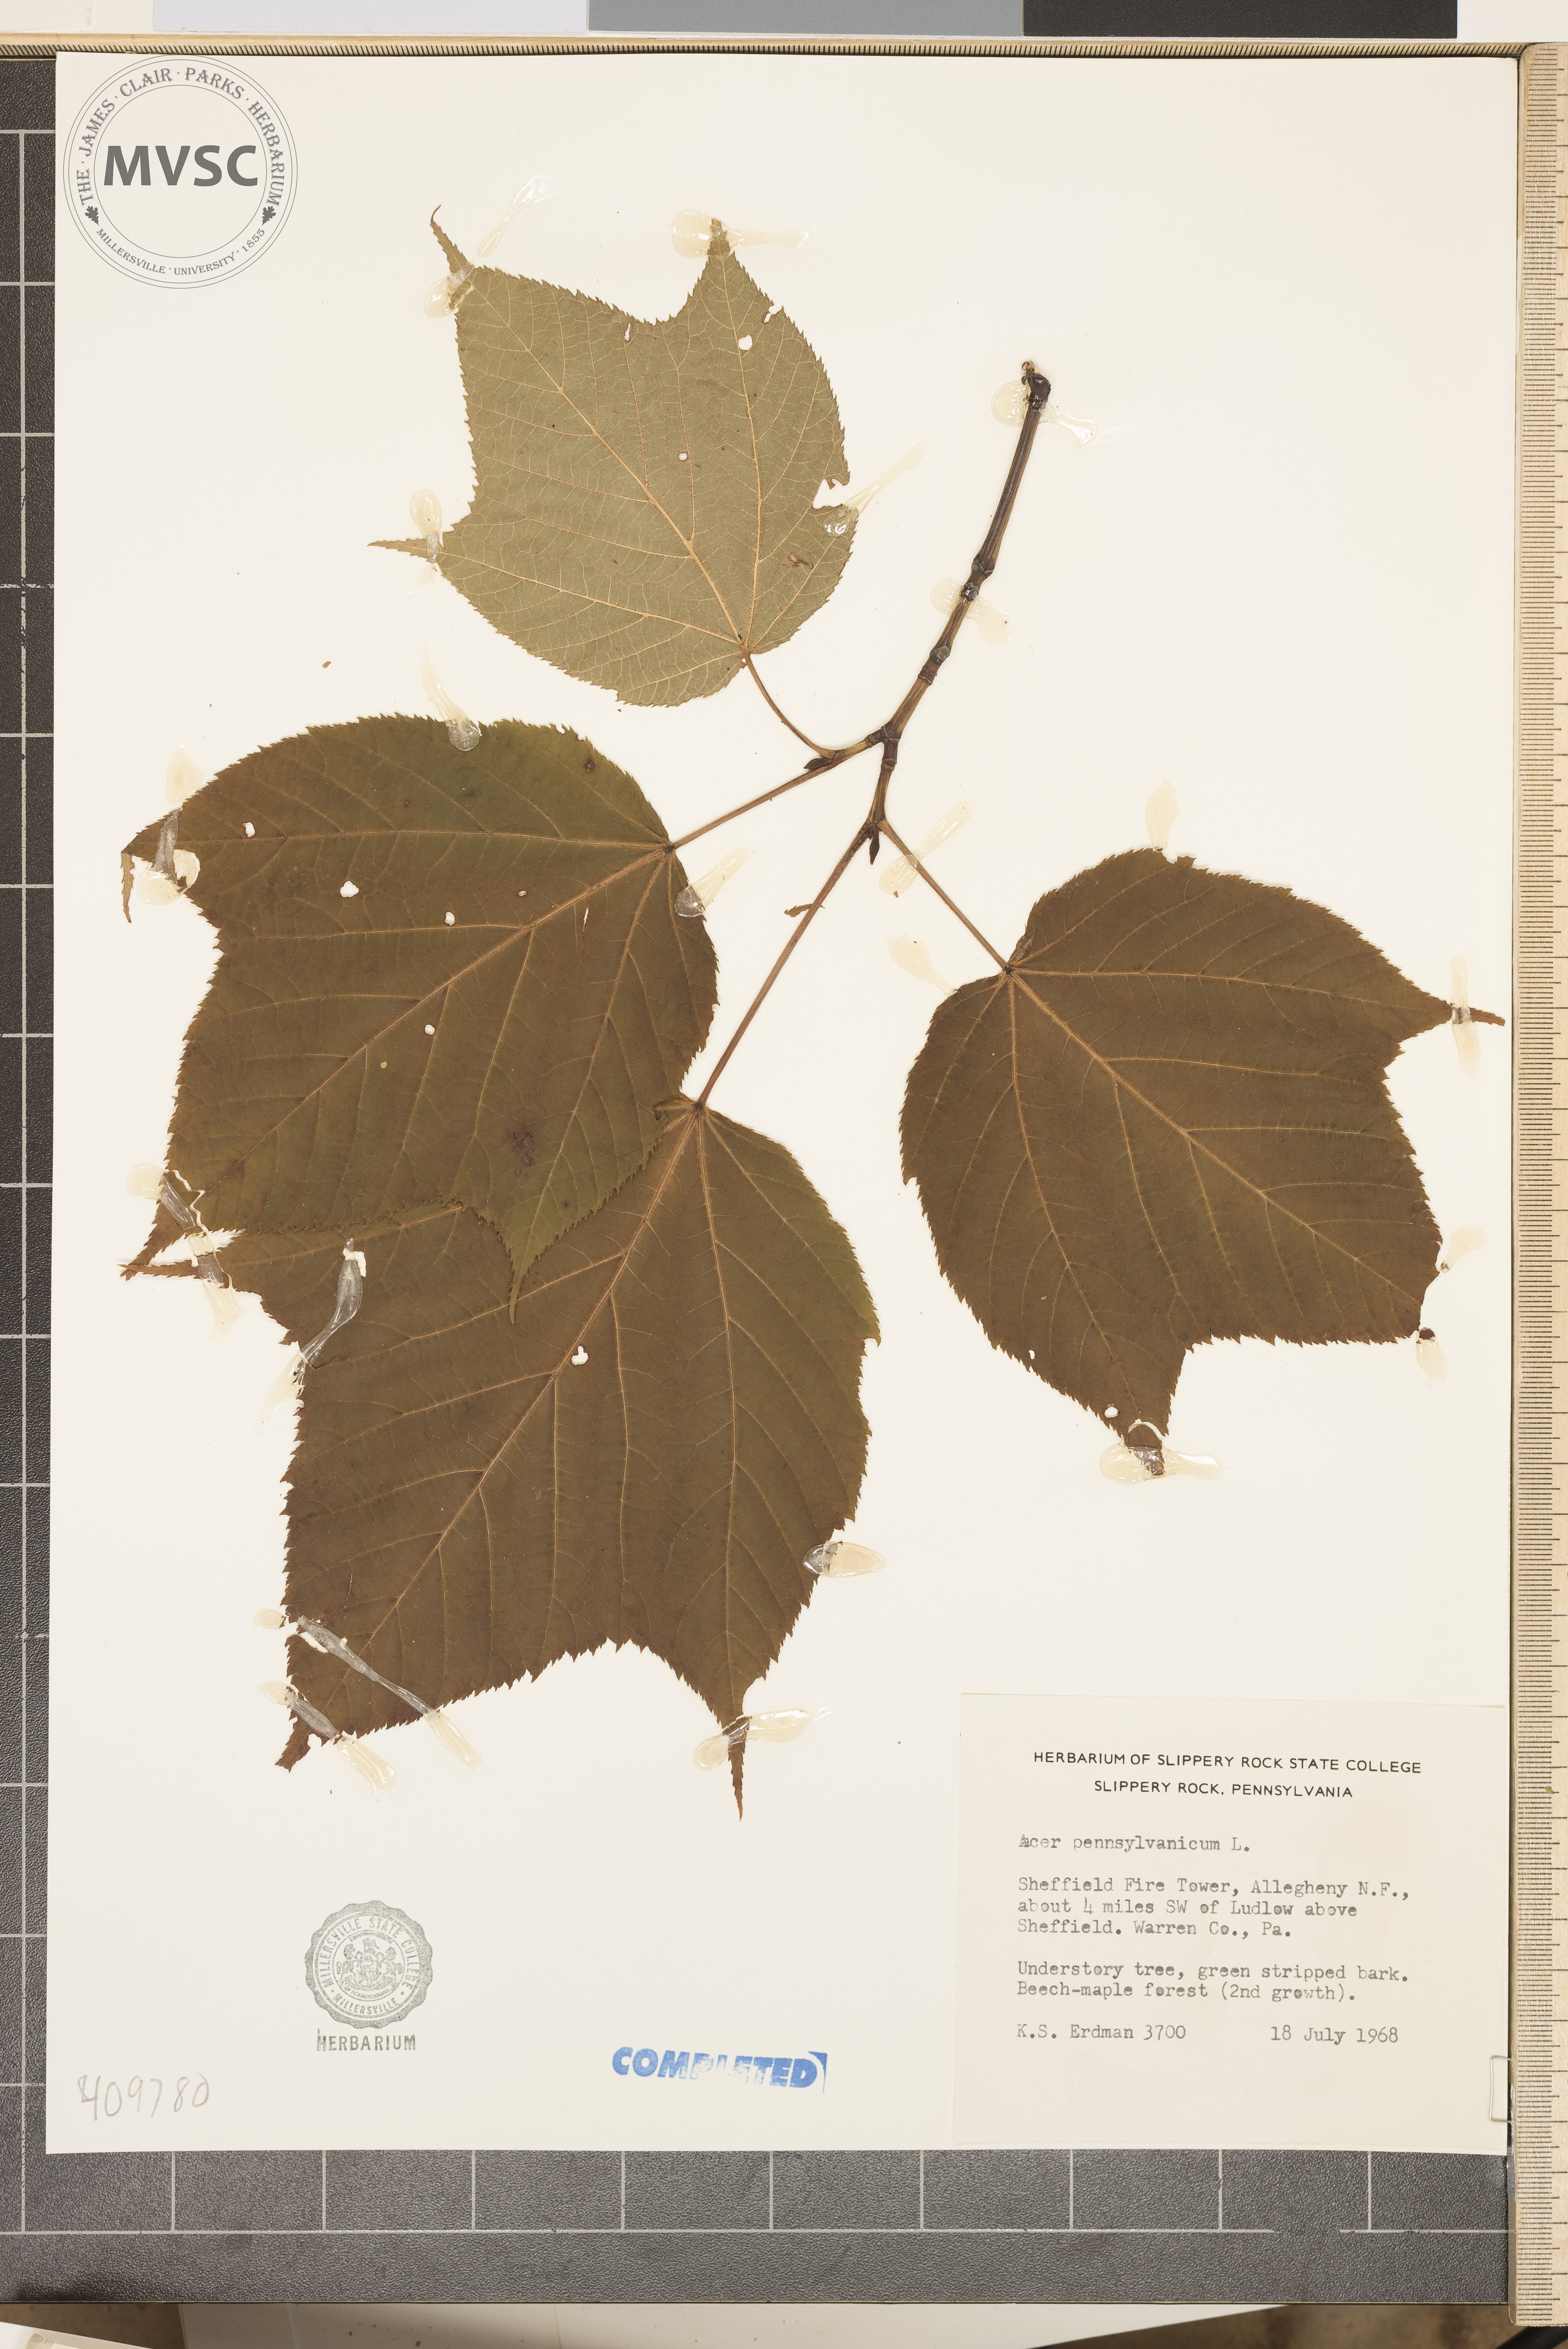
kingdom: Plantae
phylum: Tracheophyta
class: Magnoliopsida
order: Sapindales
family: Sapindaceae
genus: Acer
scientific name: Acer pensylvanicum
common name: Moosewood
